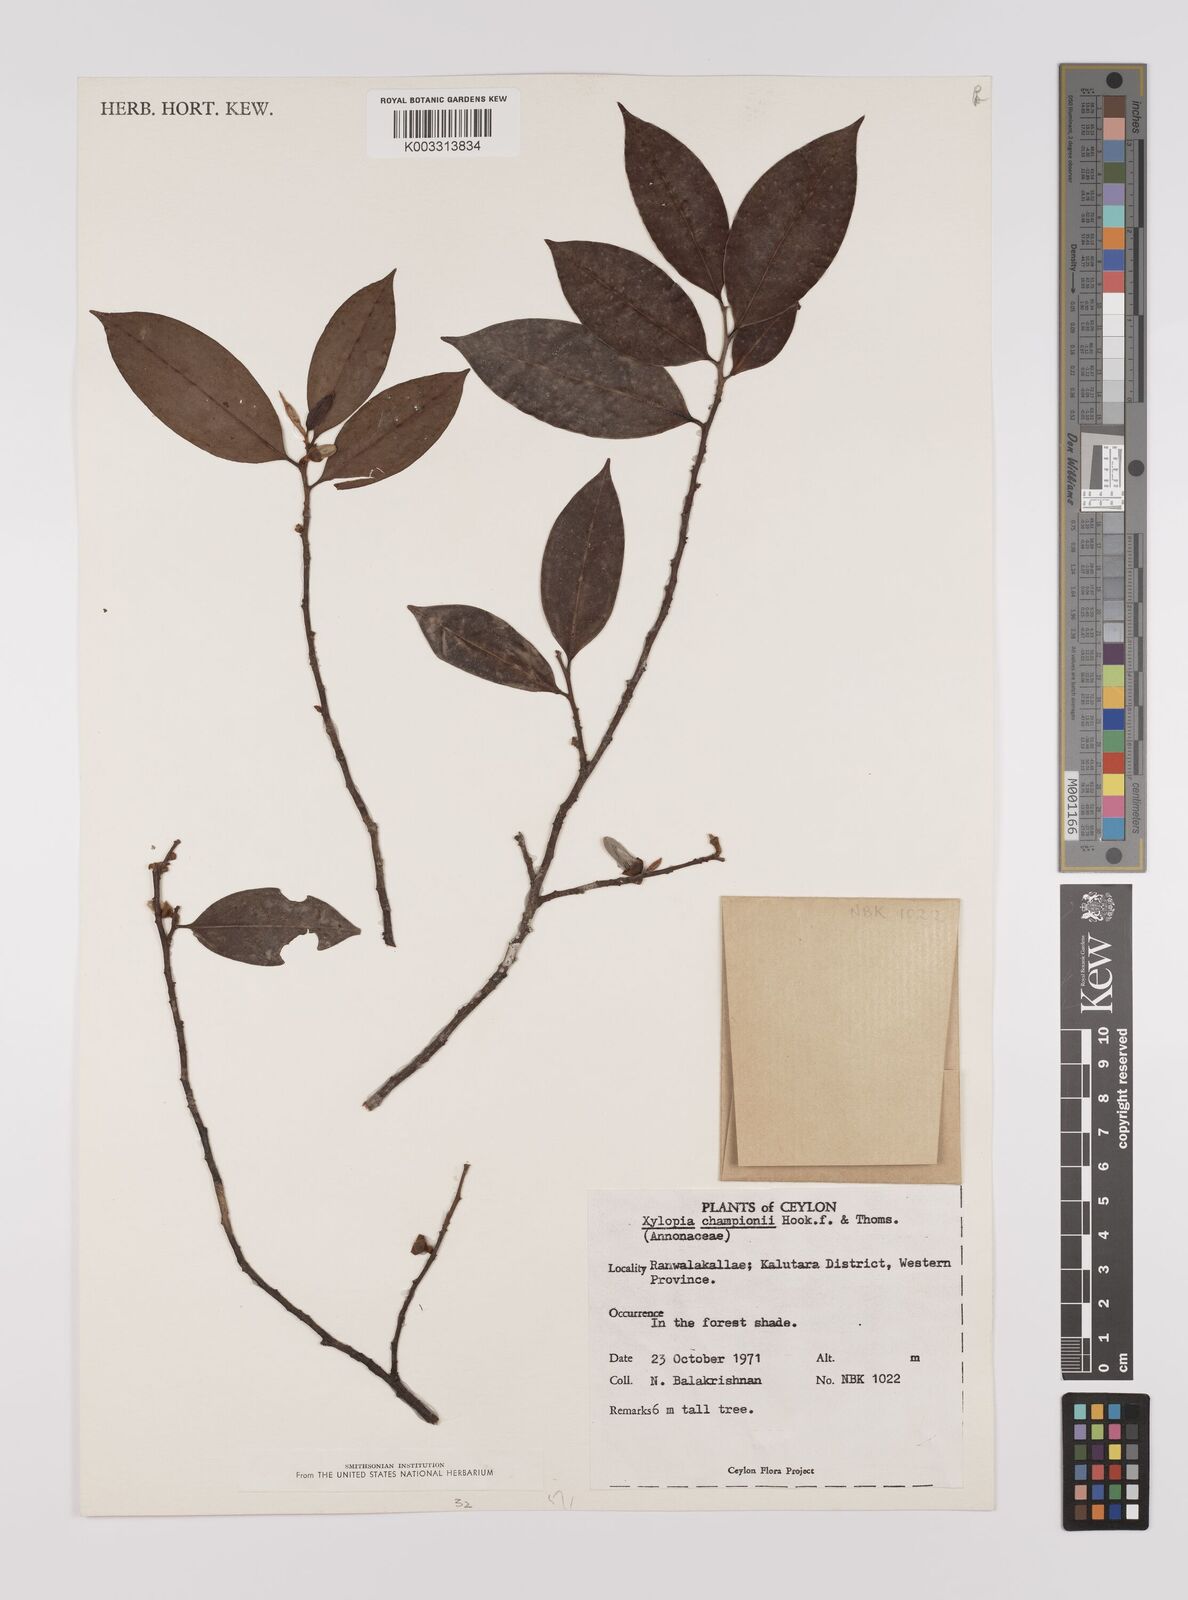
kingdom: Plantae
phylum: Tracheophyta
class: Magnoliopsida
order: Magnoliales
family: Annonaceae
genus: Xylopia
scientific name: Xylopia championii
